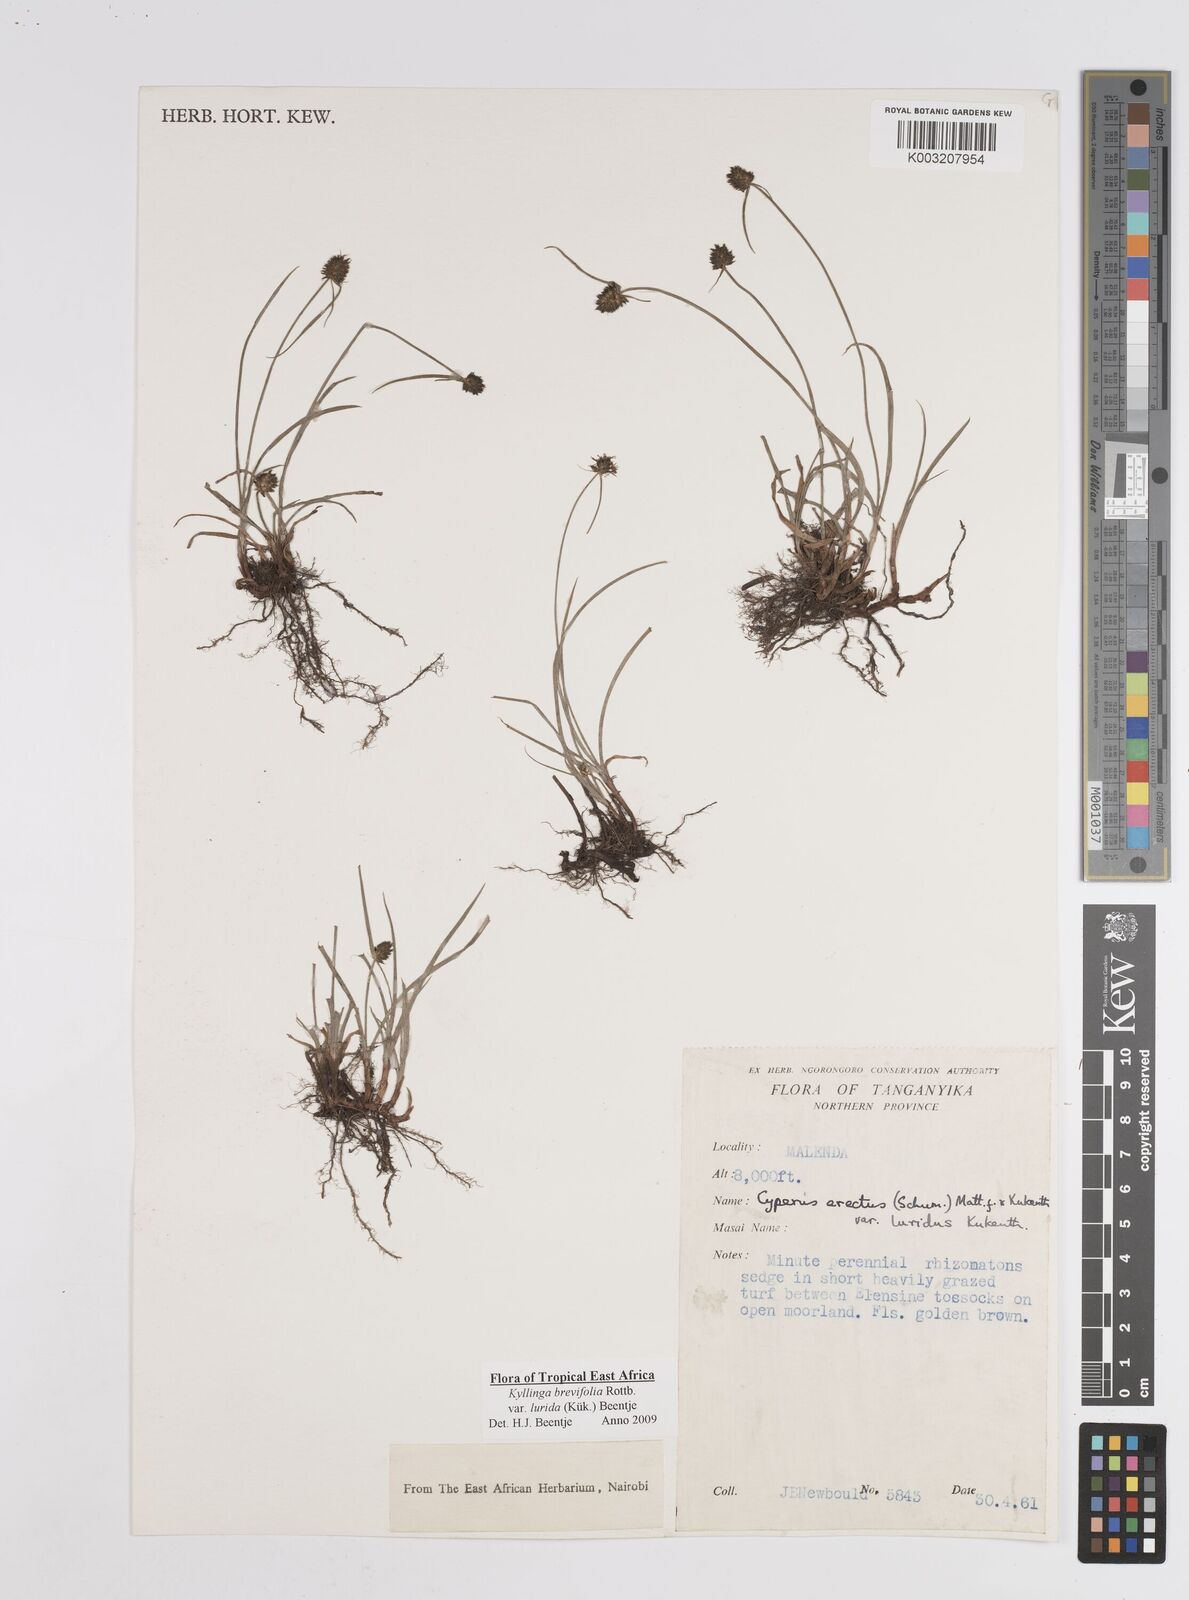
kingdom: Plantae
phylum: Tracheophyta
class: Liliopsida
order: Poales
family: Cyperaceae
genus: Cyperus
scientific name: Cyperus erectus
